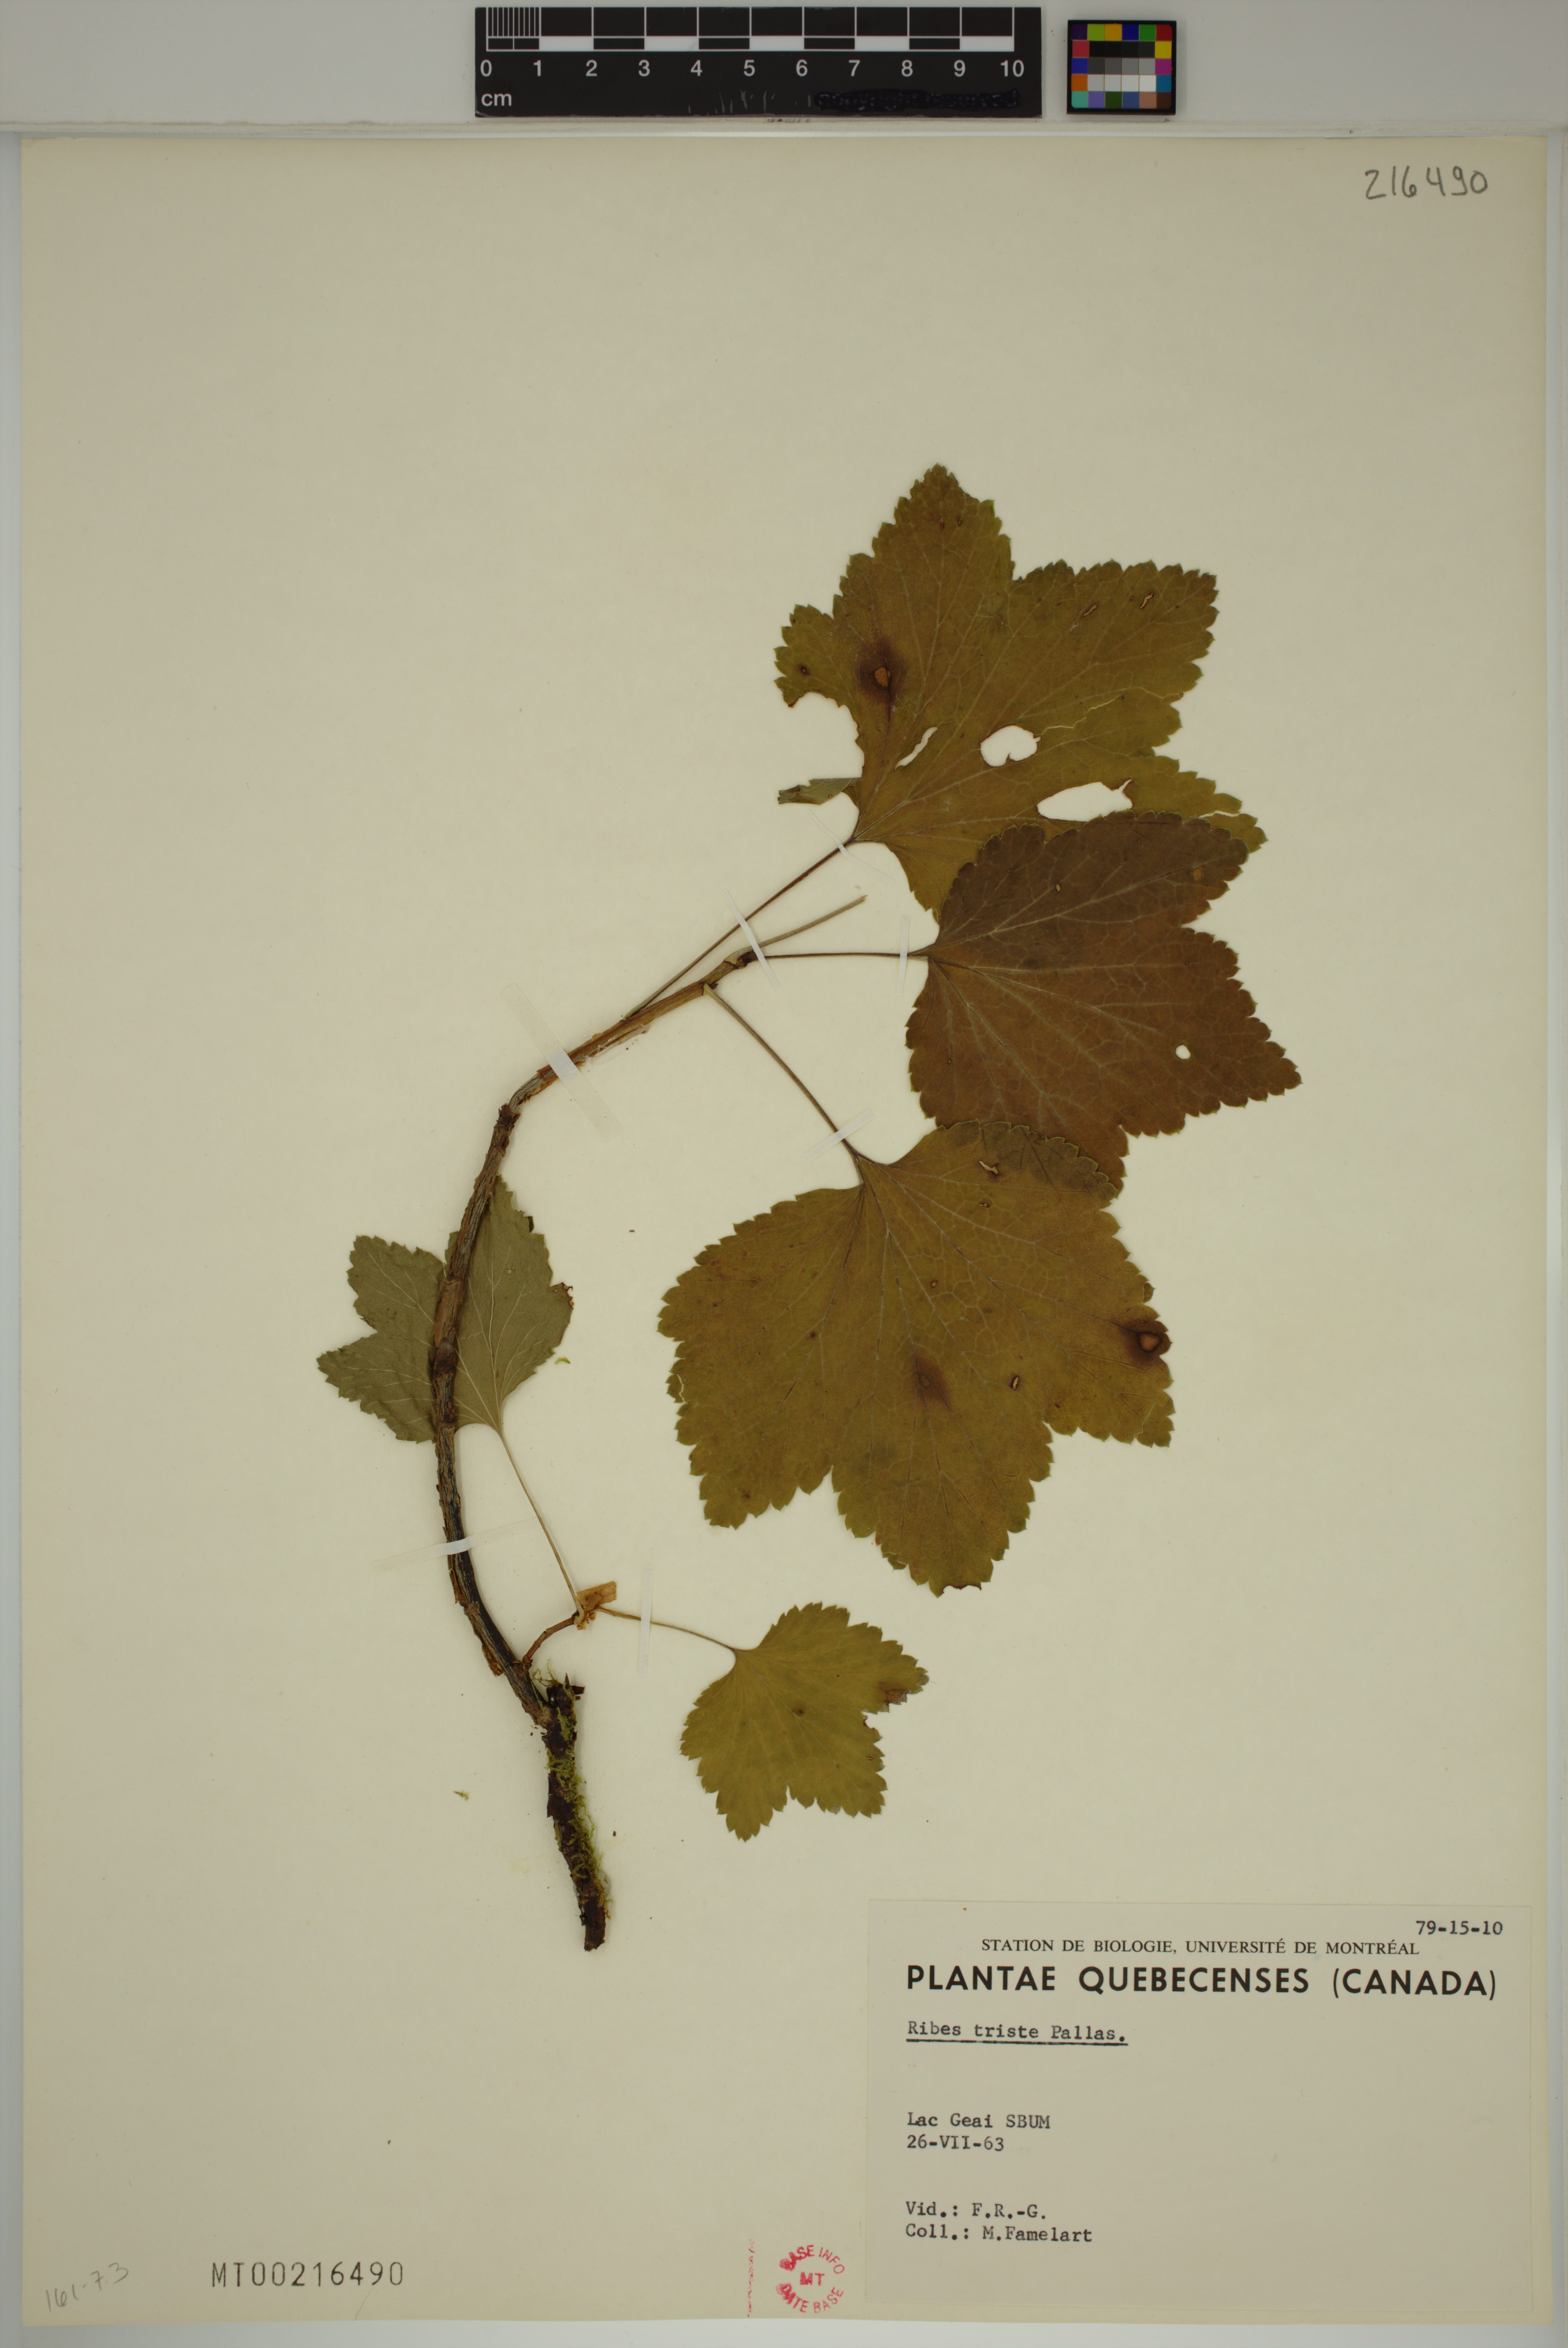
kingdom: Plantae
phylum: Tracheophyta
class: Magnoliopsida
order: Saxifragales
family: Grossulariaceae
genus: Ribes
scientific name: Ribes triste
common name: Swamp red currant
